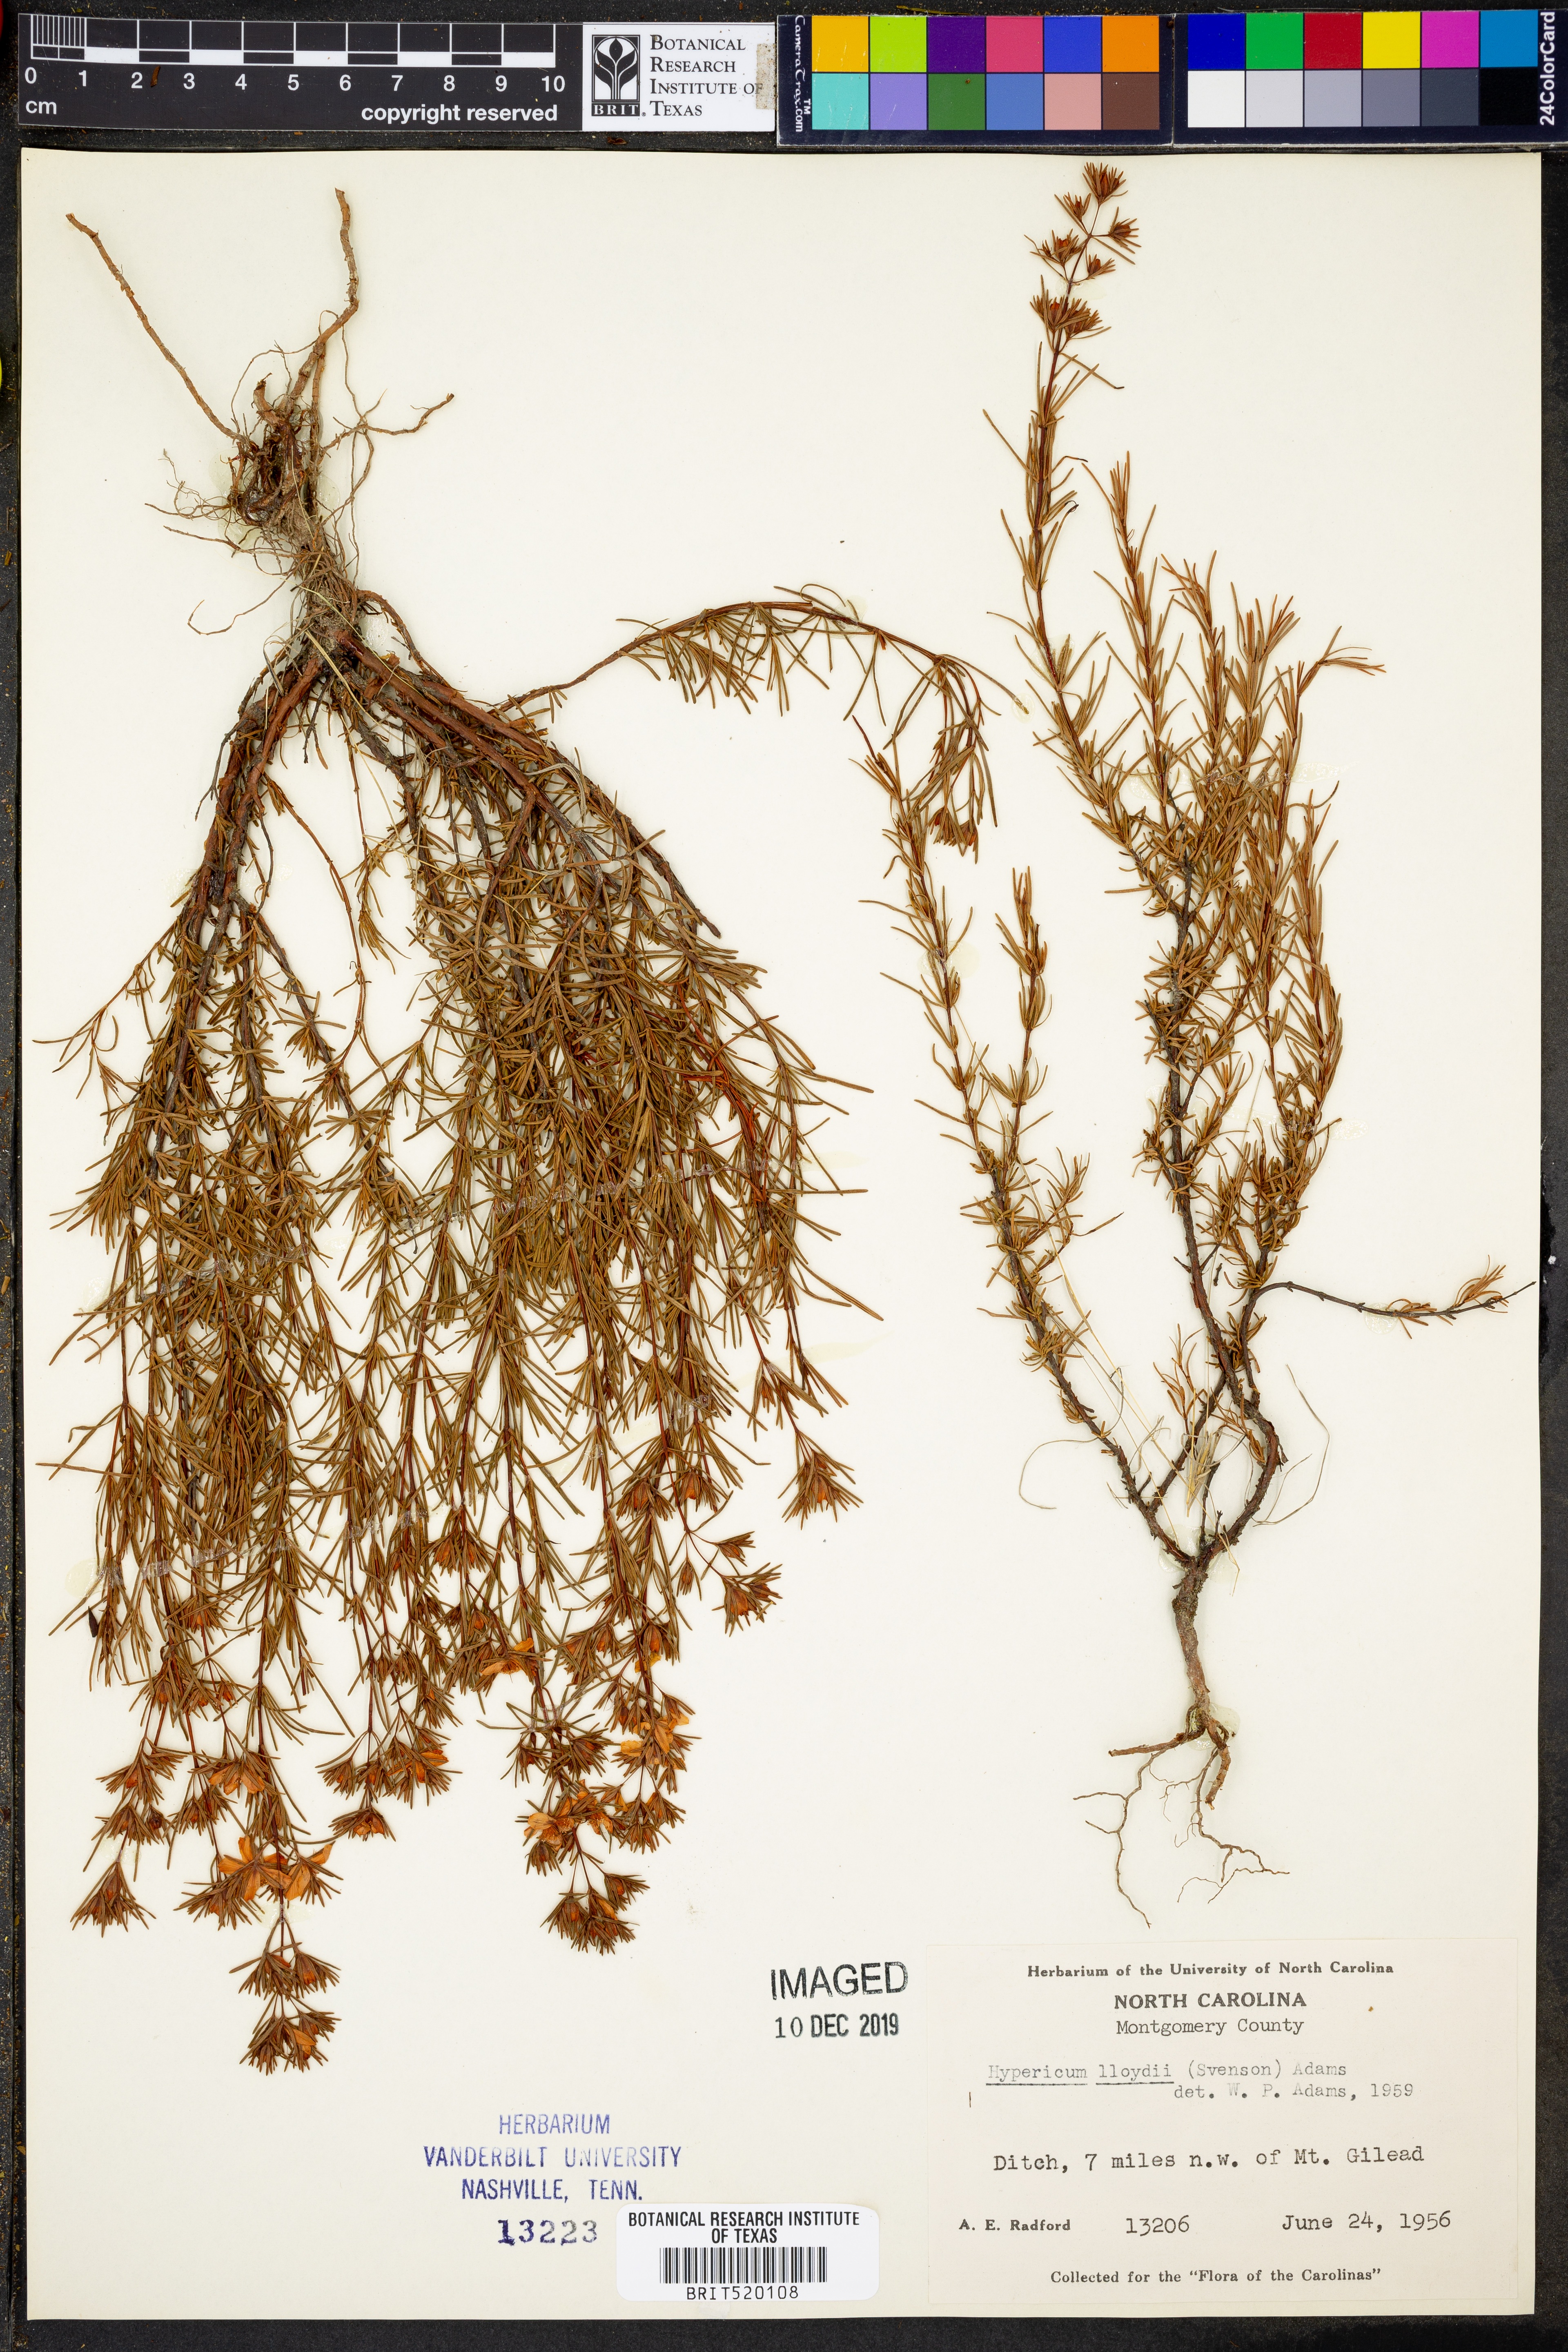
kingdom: Plantae
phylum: Tracheophyta
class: Magnoliopsida
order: Malpighiales
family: Hypericaceae
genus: Hypericum
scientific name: Hypericum lloydii
